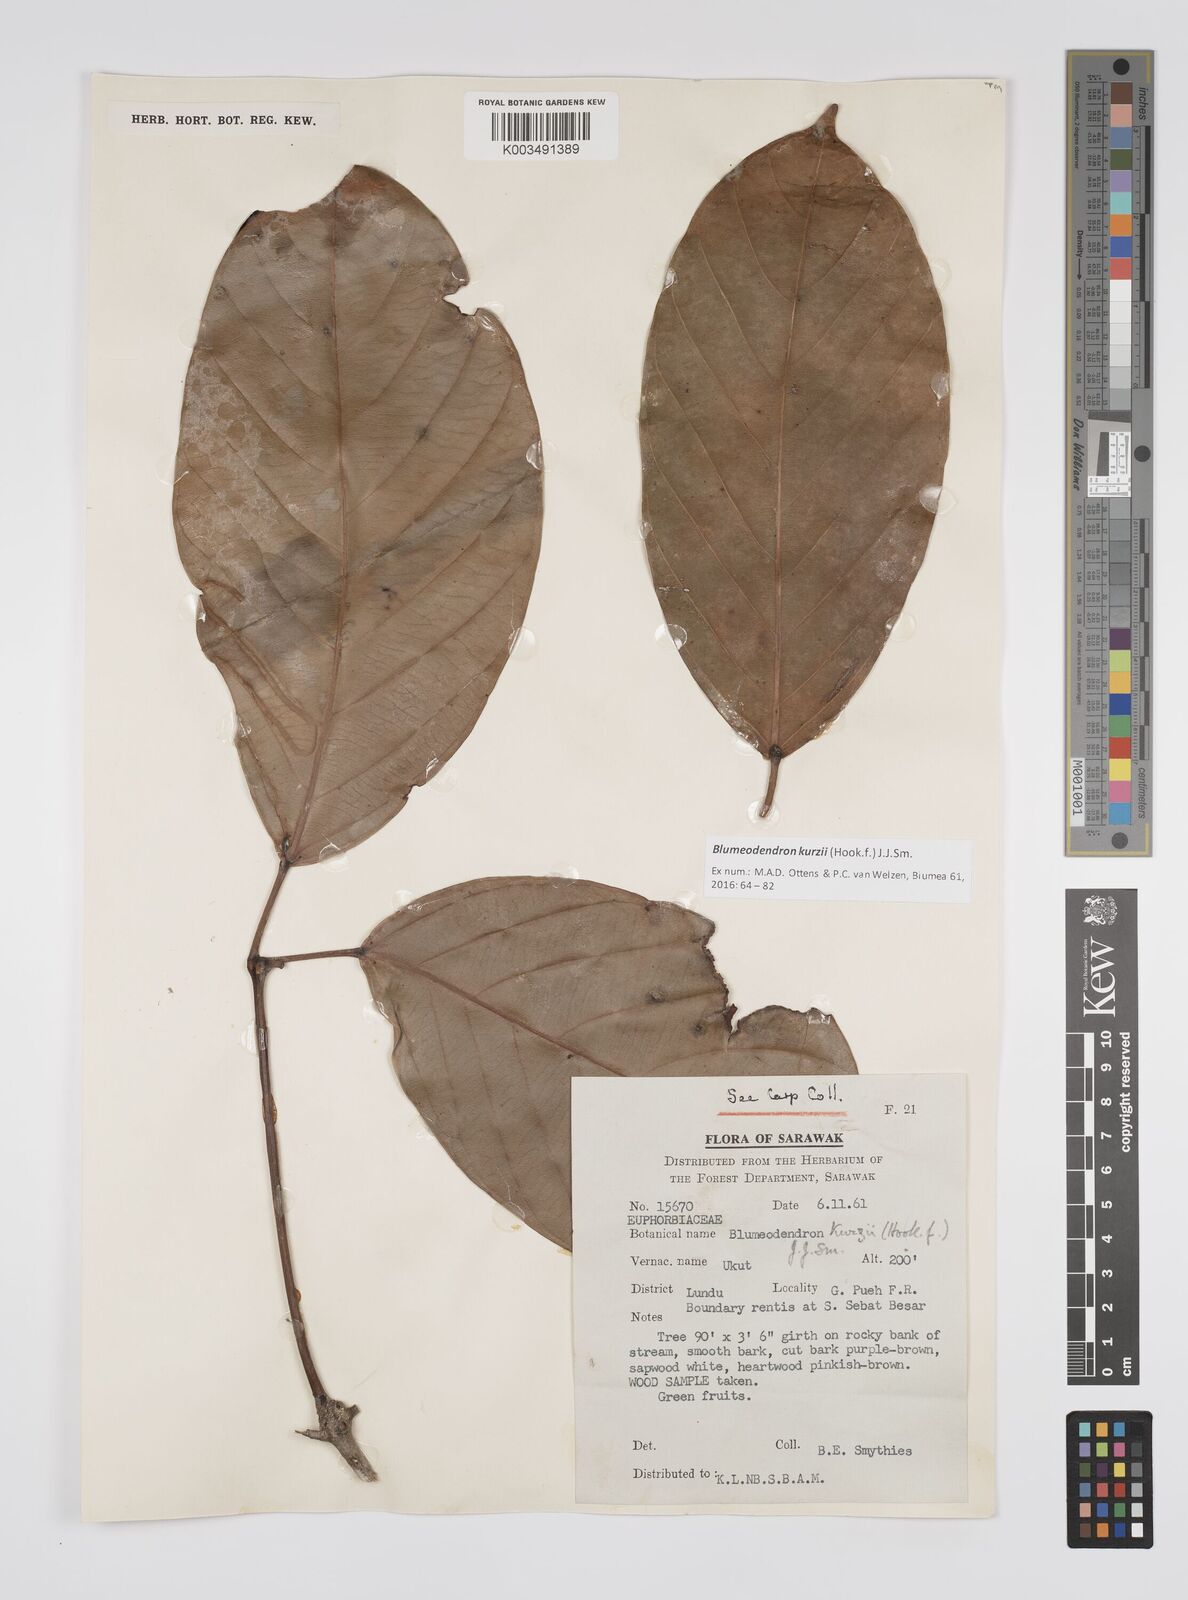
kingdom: Plantae
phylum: Tracheophyta
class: Magnoliopsida
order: Malpighiales
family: Euphorbiaceae
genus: Blumeodendron
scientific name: Blumeodendron kurzii
